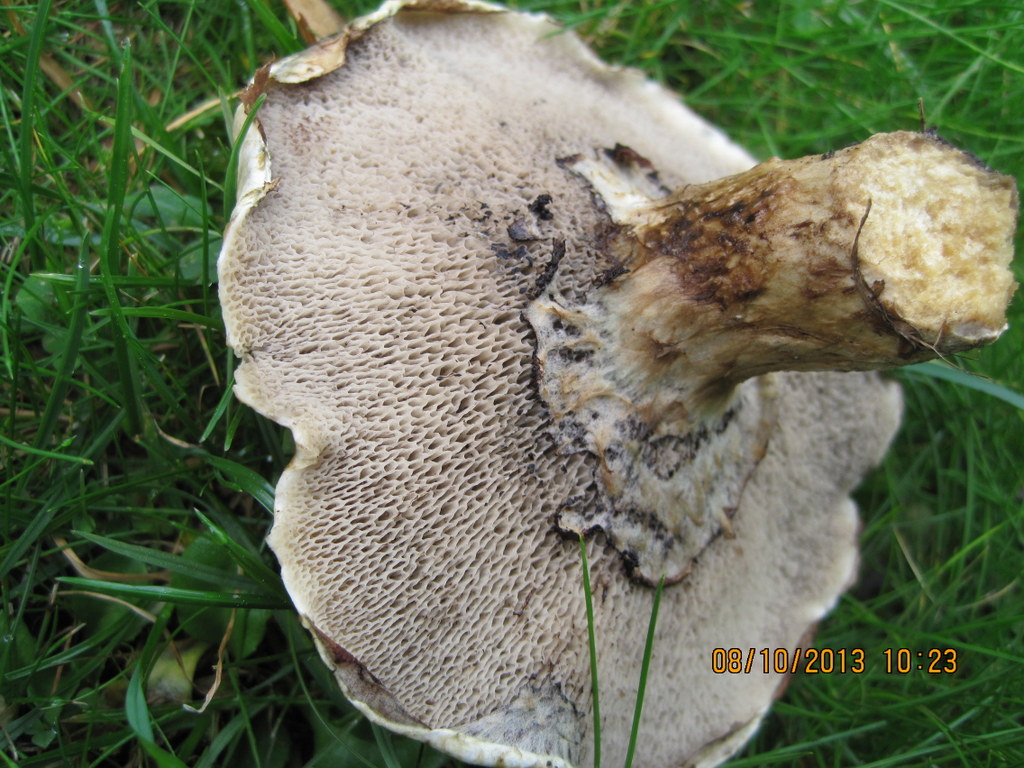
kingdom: Fungi
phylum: Basidiomycota
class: Agaricomycetes
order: Boletales
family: Suillaceae
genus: Suillus
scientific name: Suillus viscidus
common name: olivengrå slimrørhat
